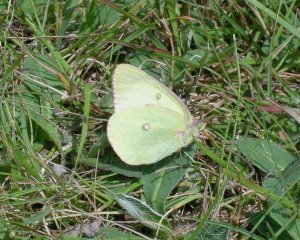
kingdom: Animalia
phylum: Arthropoda
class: Insecta
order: Lepidoptera
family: Pieridae
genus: Colias
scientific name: Colias interior
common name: Pink-edged Sulphur
